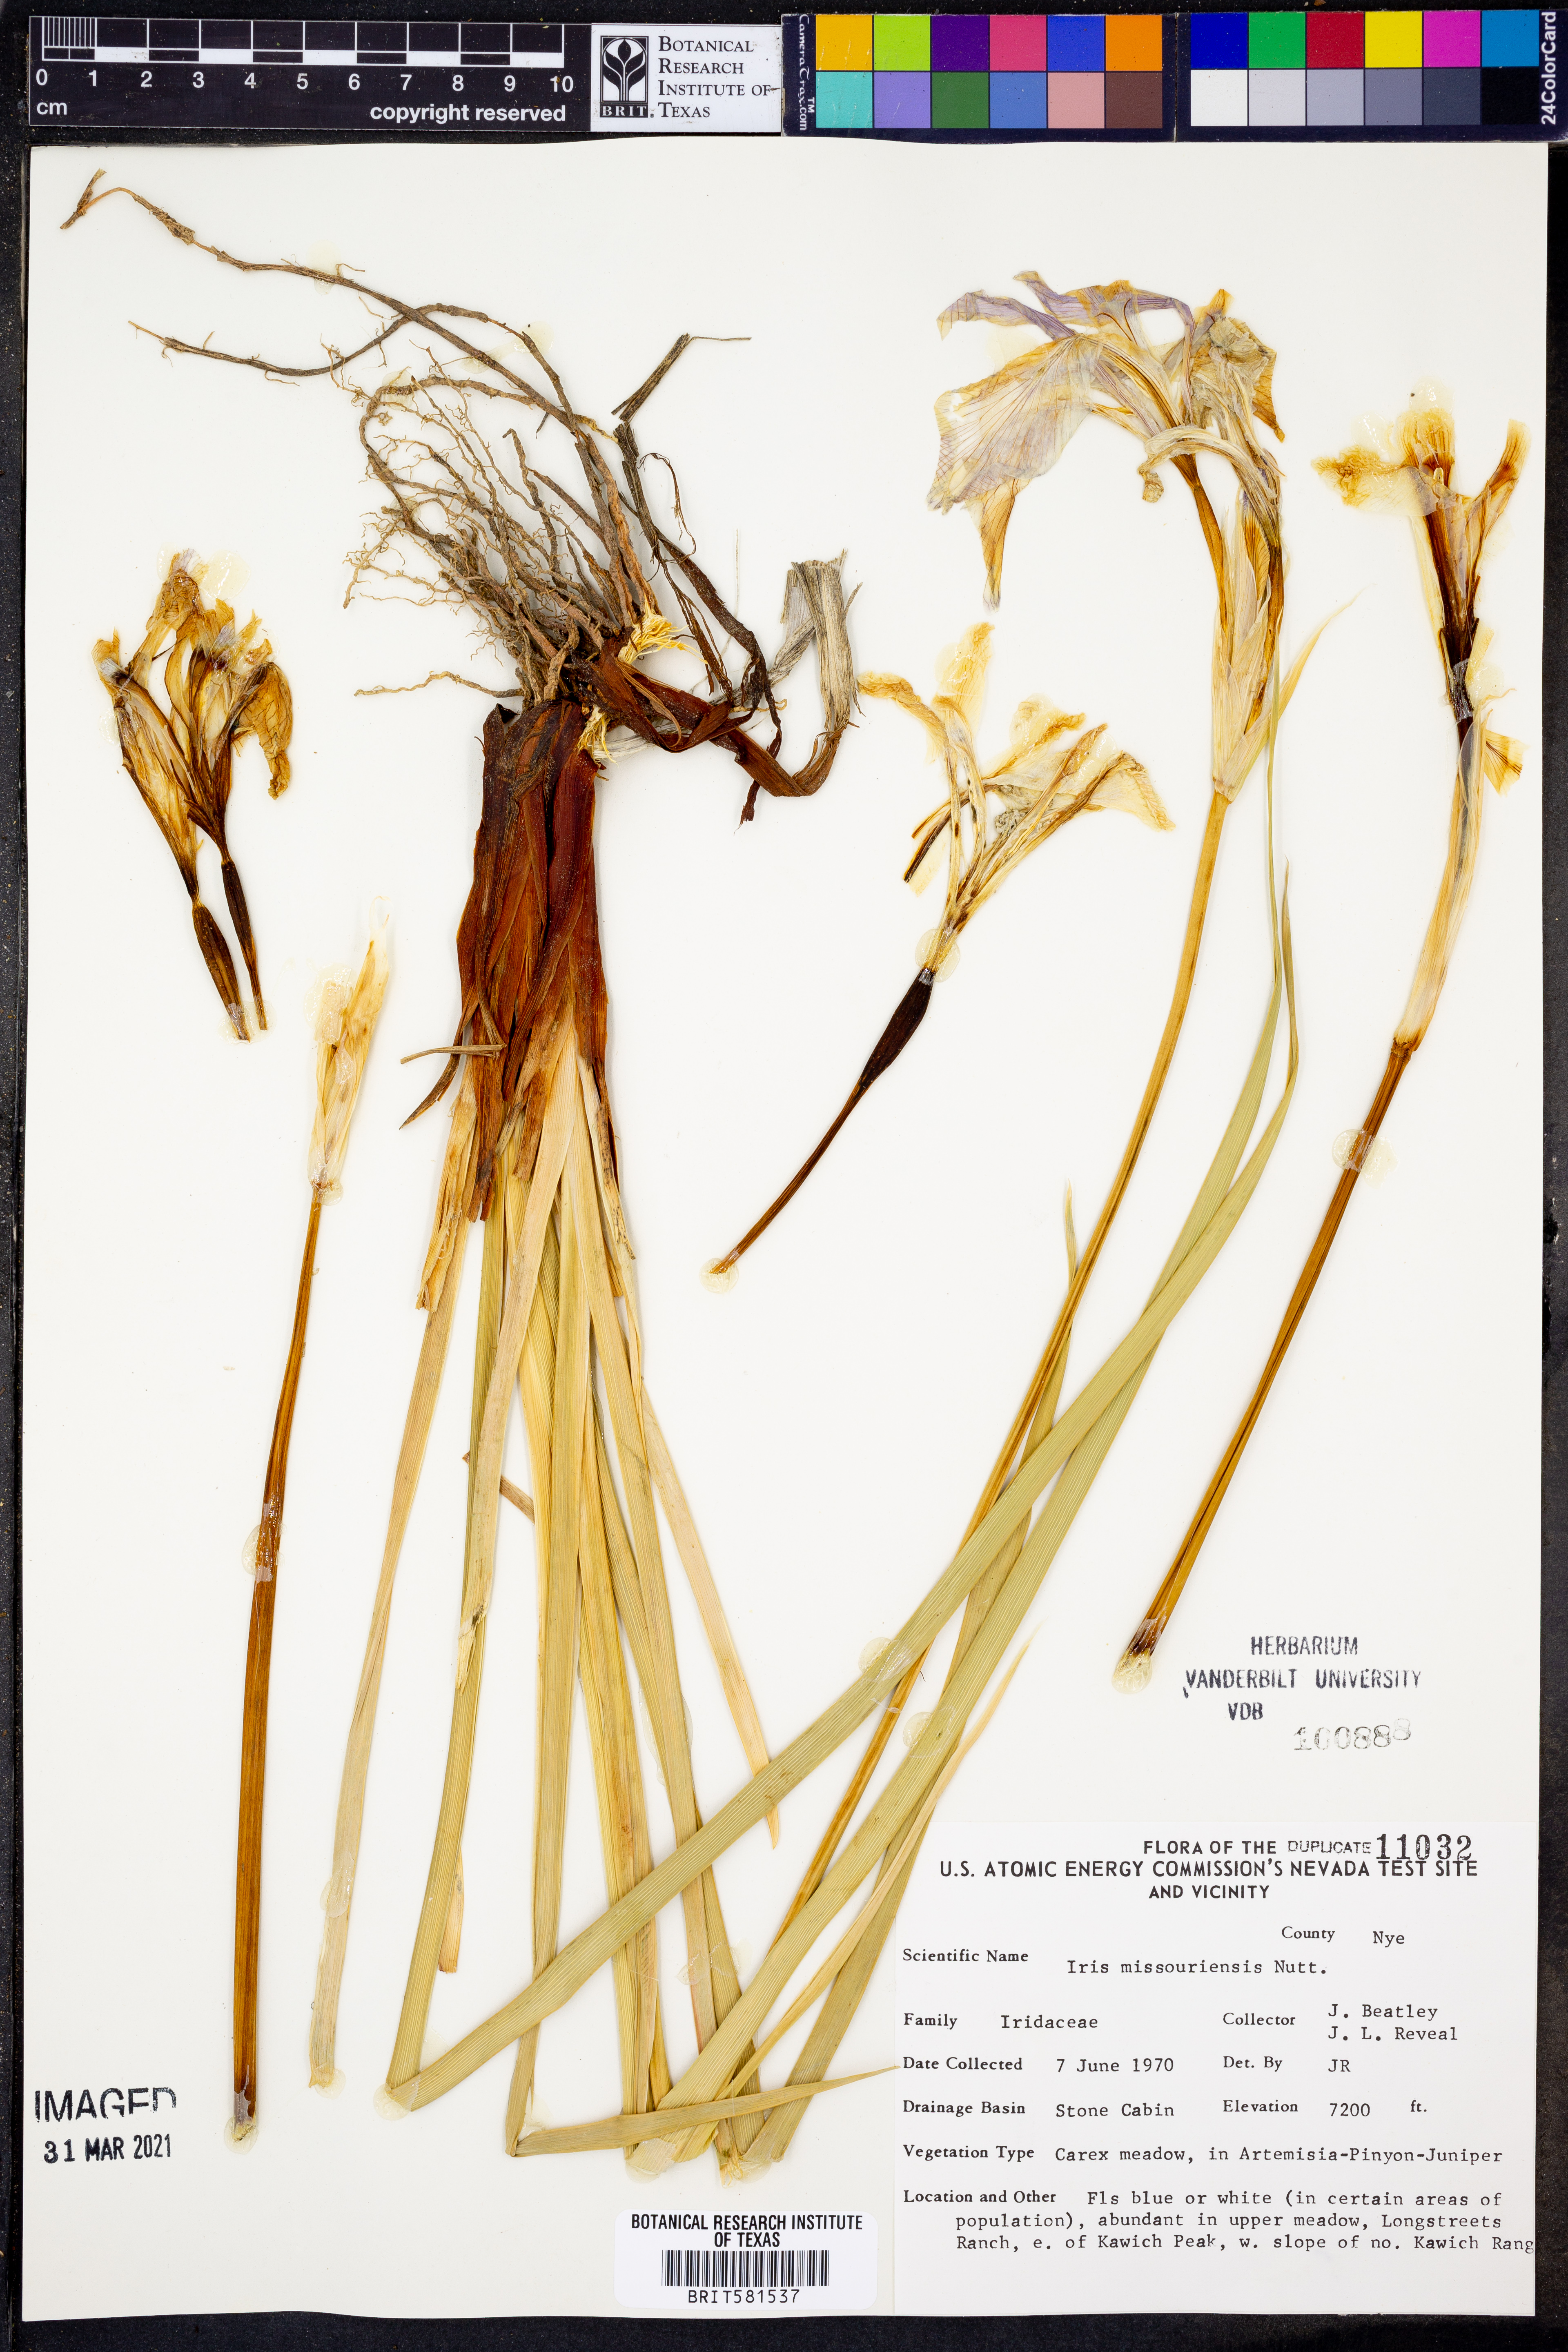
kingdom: Plantae
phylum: Tracheophyta
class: Liliopsida
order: Asparagales
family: Iridaceae
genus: Iris
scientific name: Iris missouriensis
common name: Rocky mountain iris
